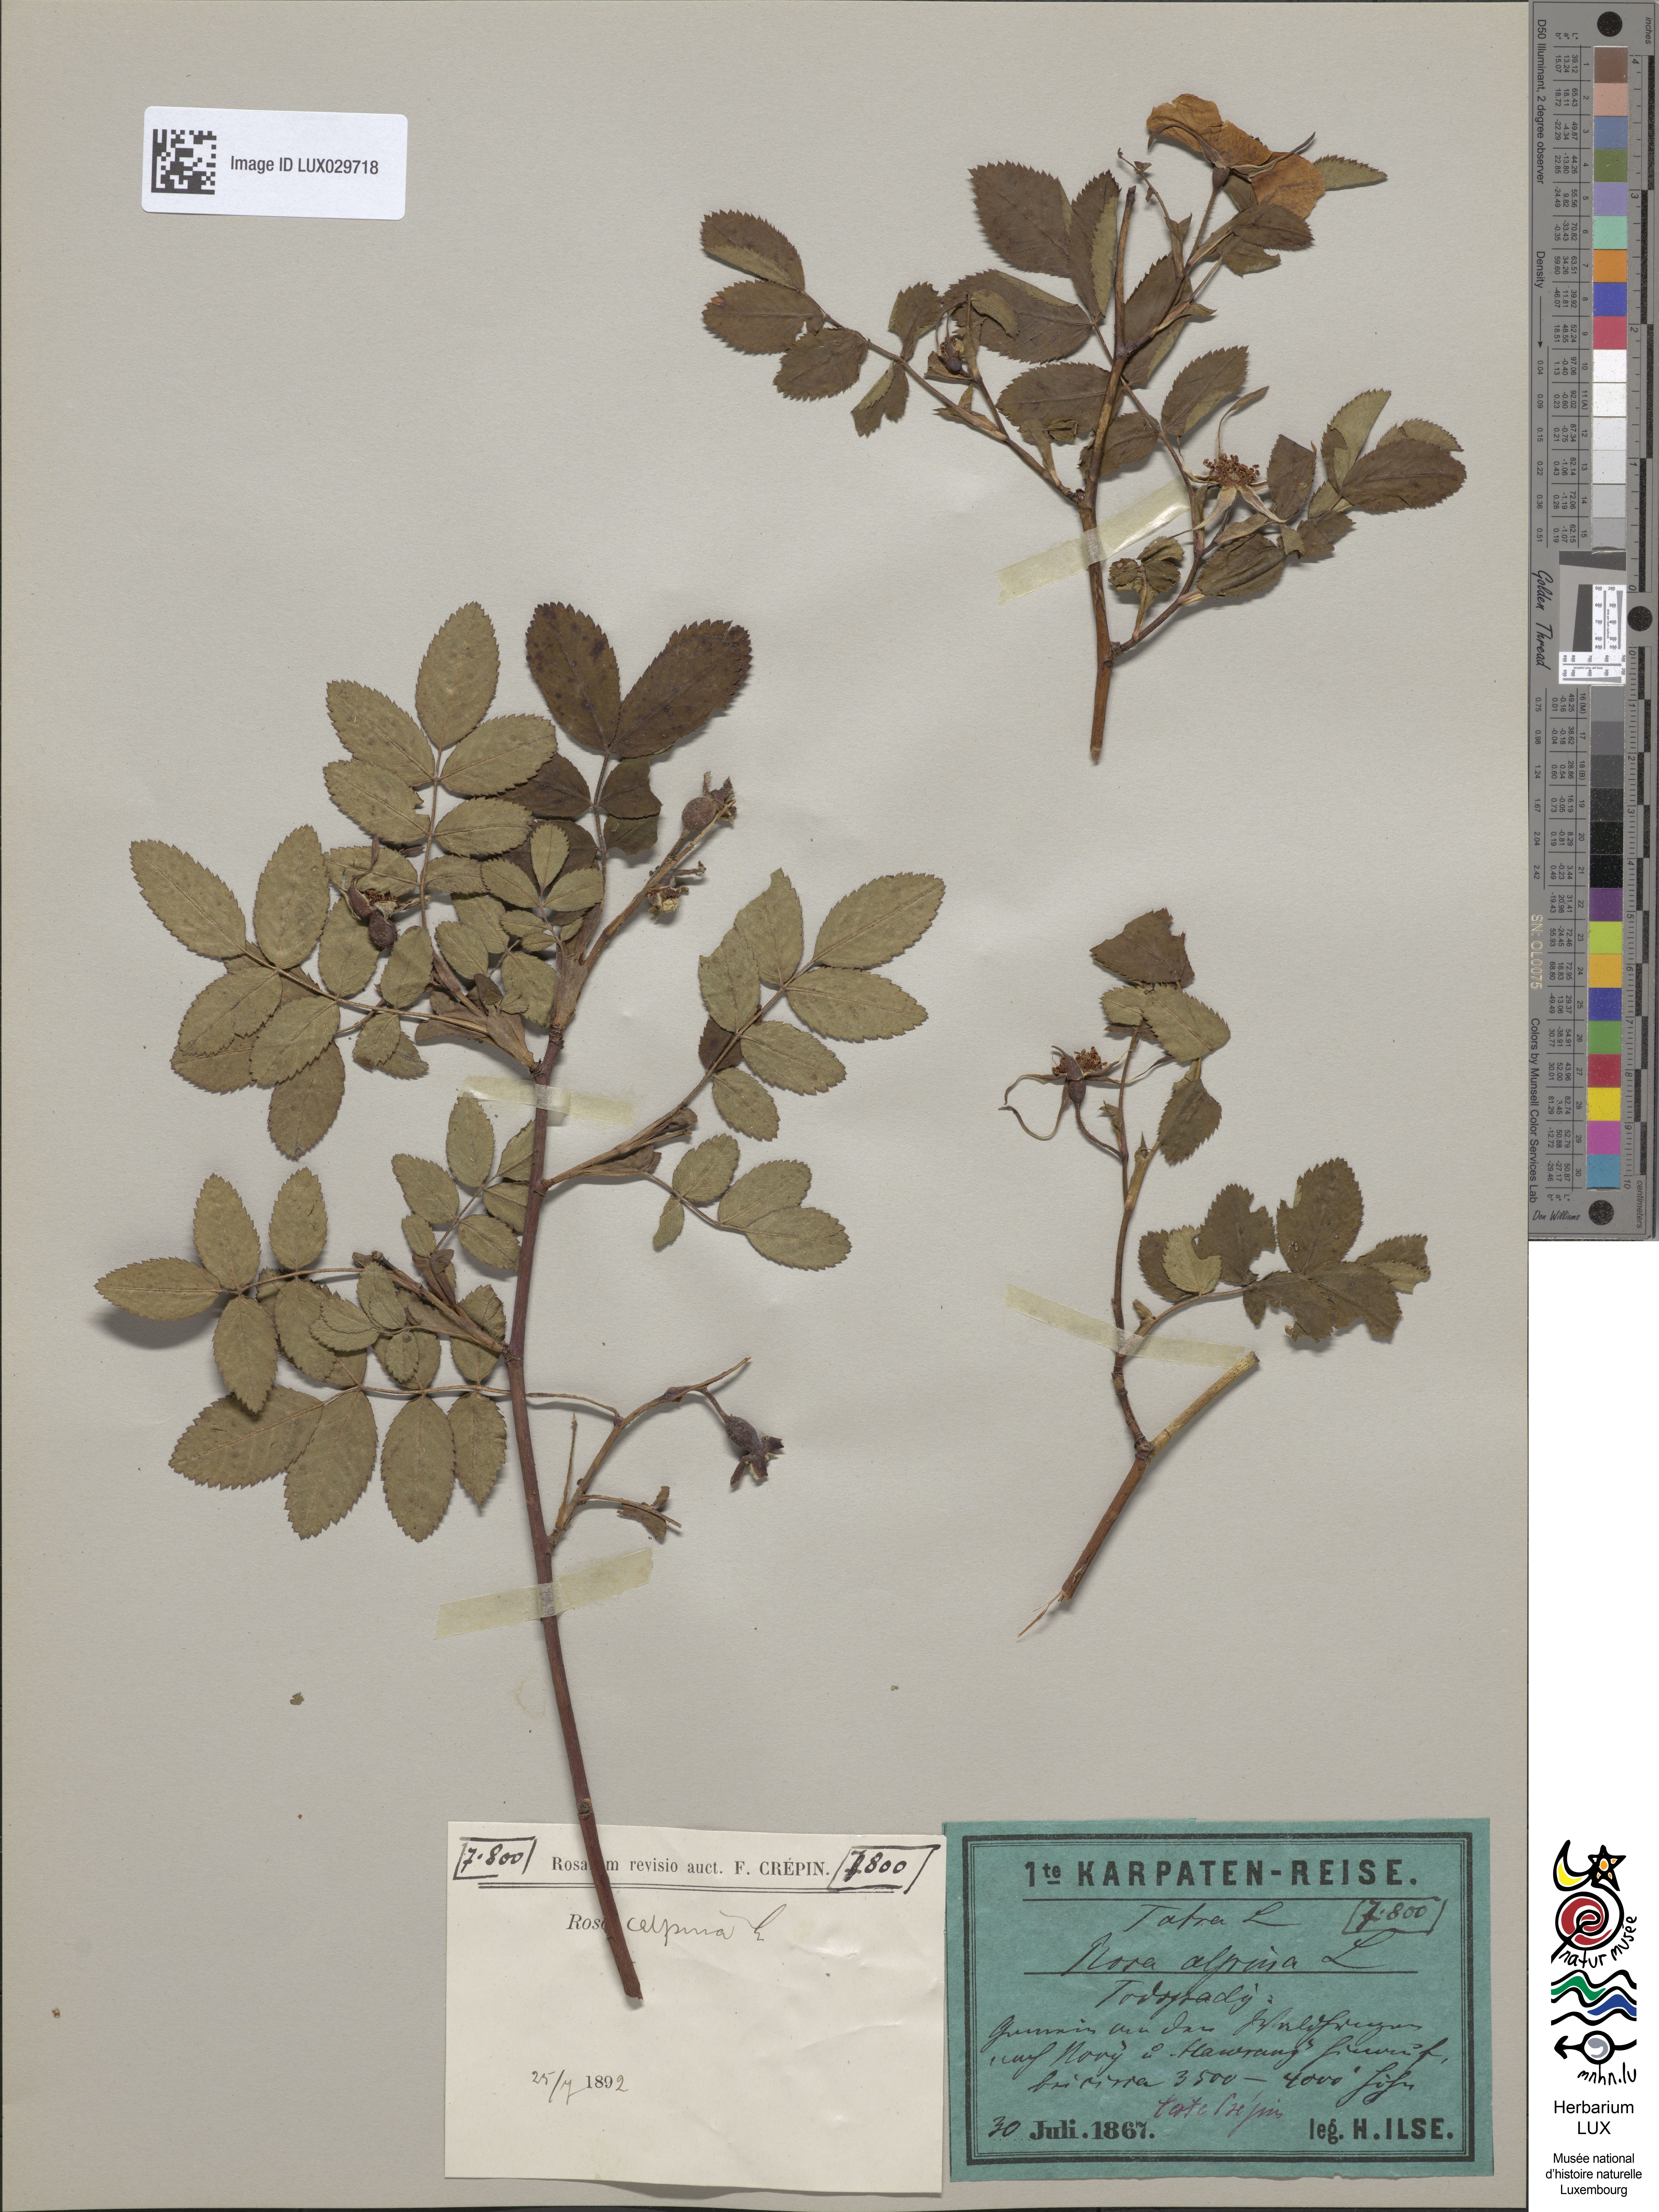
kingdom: Plantae
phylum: Tracheophyta
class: Magnoliopsida
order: Rosales
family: Rosaceae
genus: Rosa
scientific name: Rosa pendulina
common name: Alpine rose
